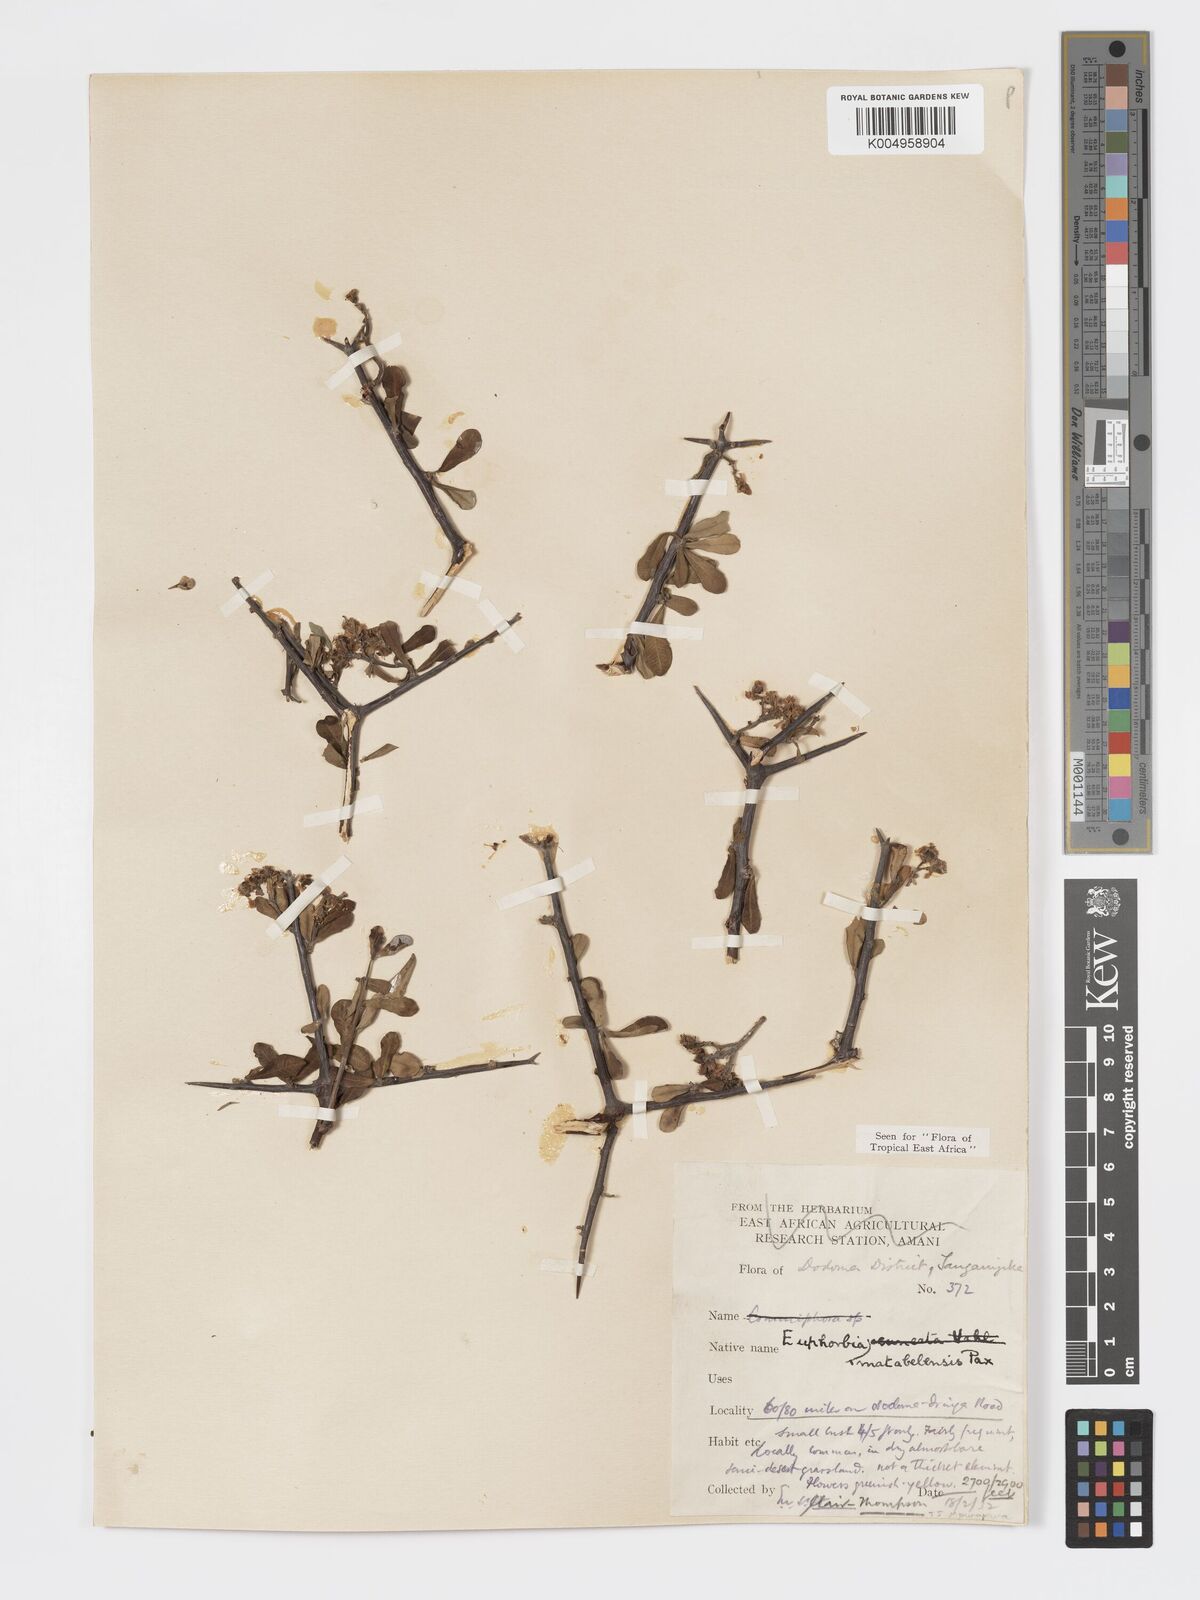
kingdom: Plantae
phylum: Tracheophyta
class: Magnoliopsida
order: Malpighiales
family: Euphorbiaceae
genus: Euphorbia
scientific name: Euphorbia matabelensis
